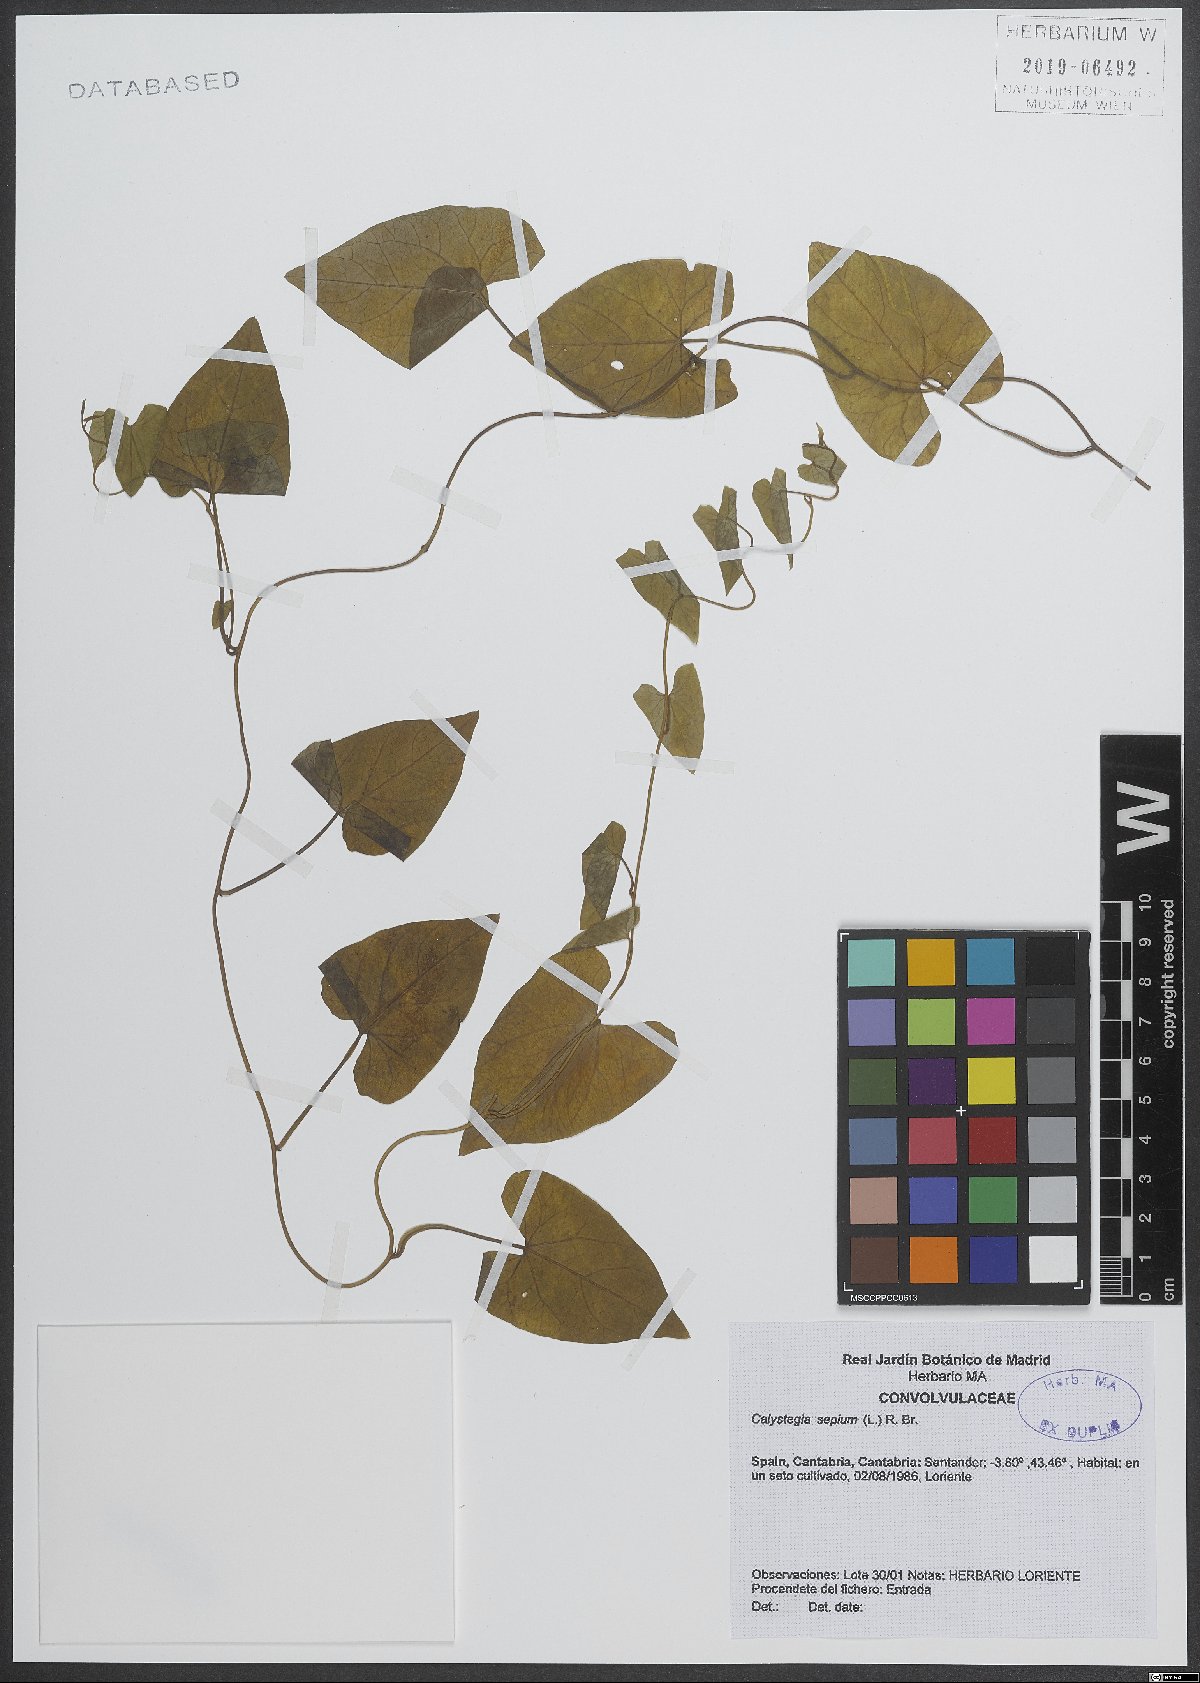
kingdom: Plantae
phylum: Tracheophyta
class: Magnoliopsida
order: Solanales
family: Convolvulaceae
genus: Calystegia
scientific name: Calystegia sepium
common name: Hedge bindweed
